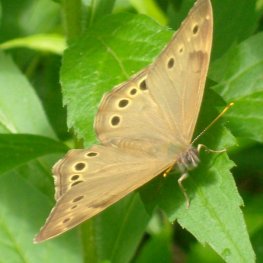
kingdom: Animalia
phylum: Arthropoda
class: Insecta
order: Lepidoptera
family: Nymphalidae
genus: Lethe
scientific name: Lethe anthedon
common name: Northern Pearly-Eye
